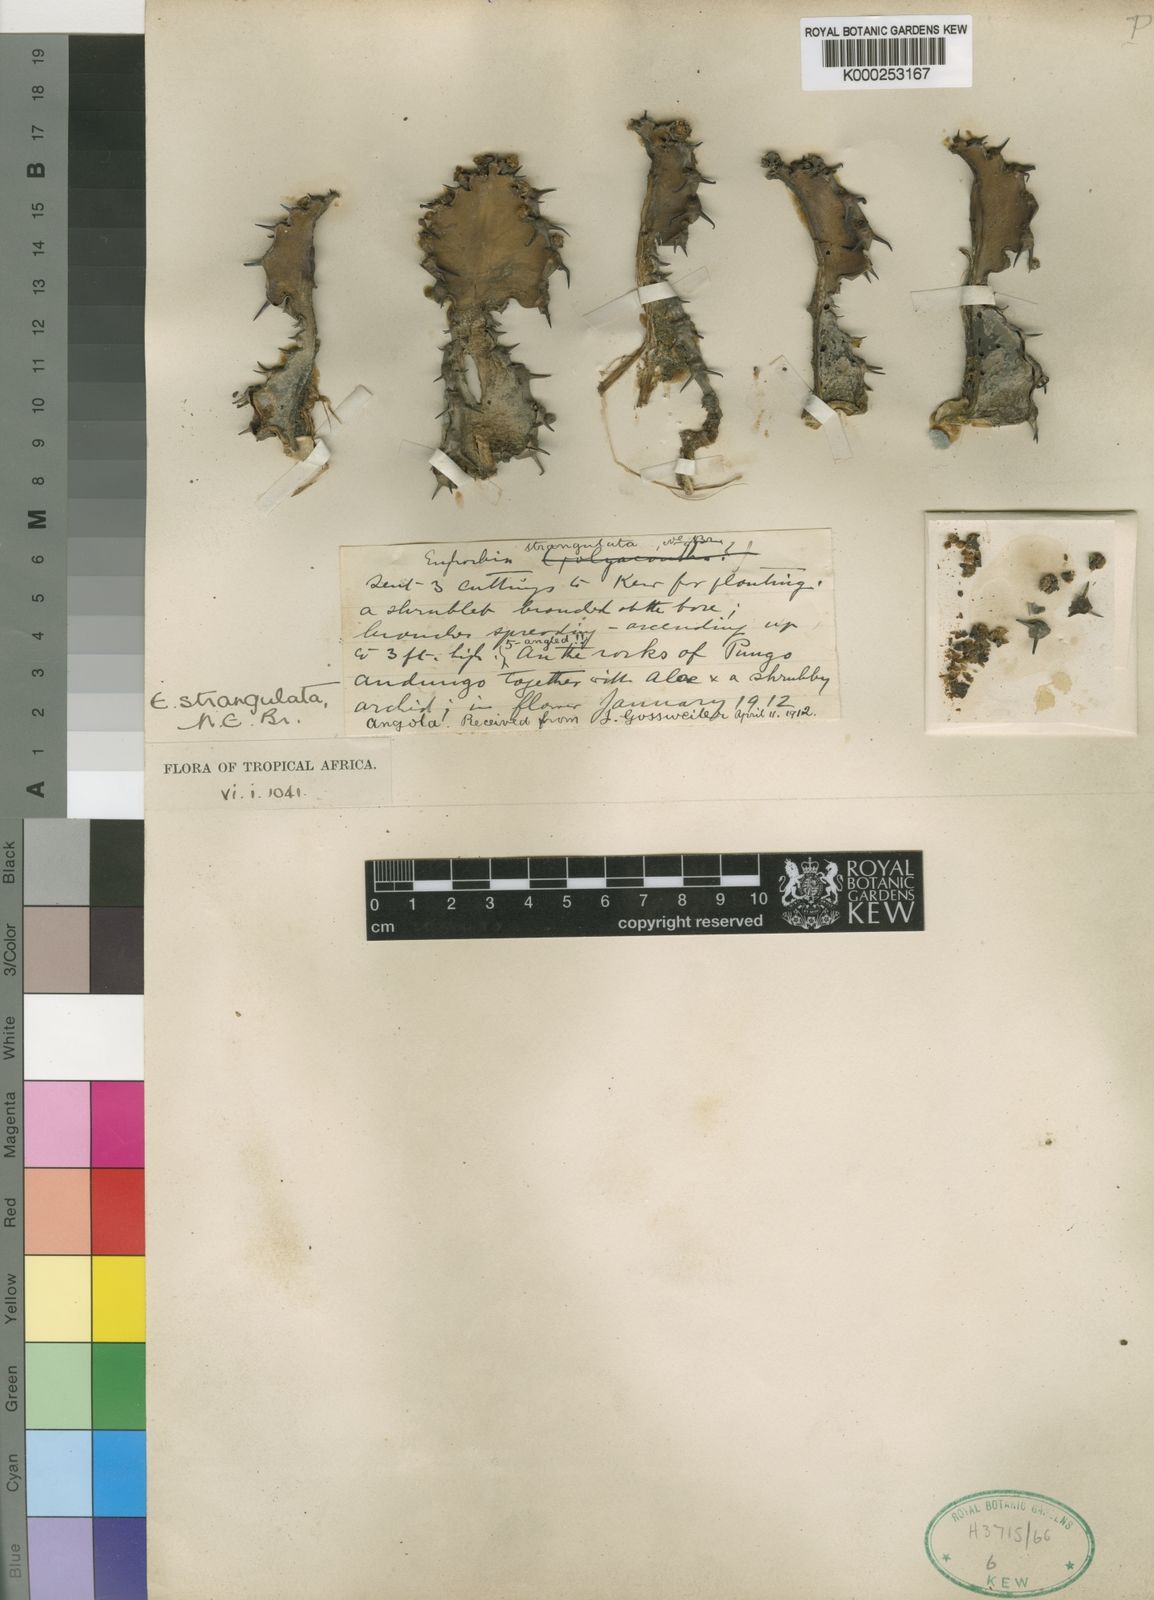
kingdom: Plantae
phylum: Tracheophyta
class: Magnoliopsida
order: Malpighiales
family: Euphorbiaceae
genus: Euphorbia
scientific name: Euphorbia strangulata
